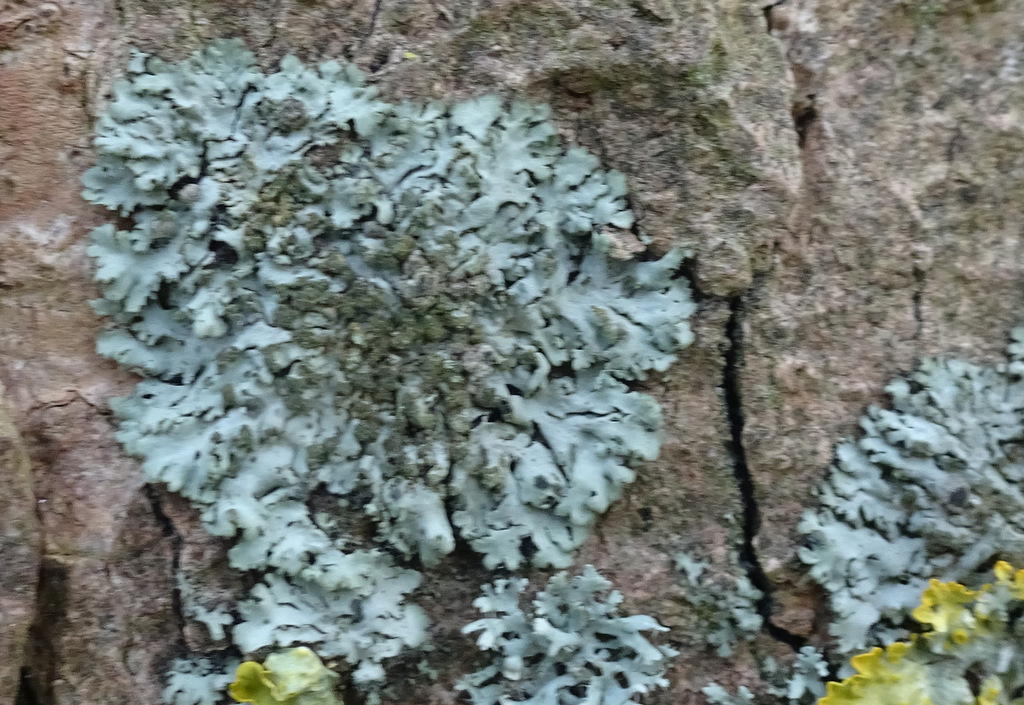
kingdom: Fungi
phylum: Ascomycota
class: Lecanoromycetes
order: Caliciales
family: Physciaceae
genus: Phaeophyscia
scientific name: Phaeophyscia orbicularis
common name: grågrøn rosetlav
